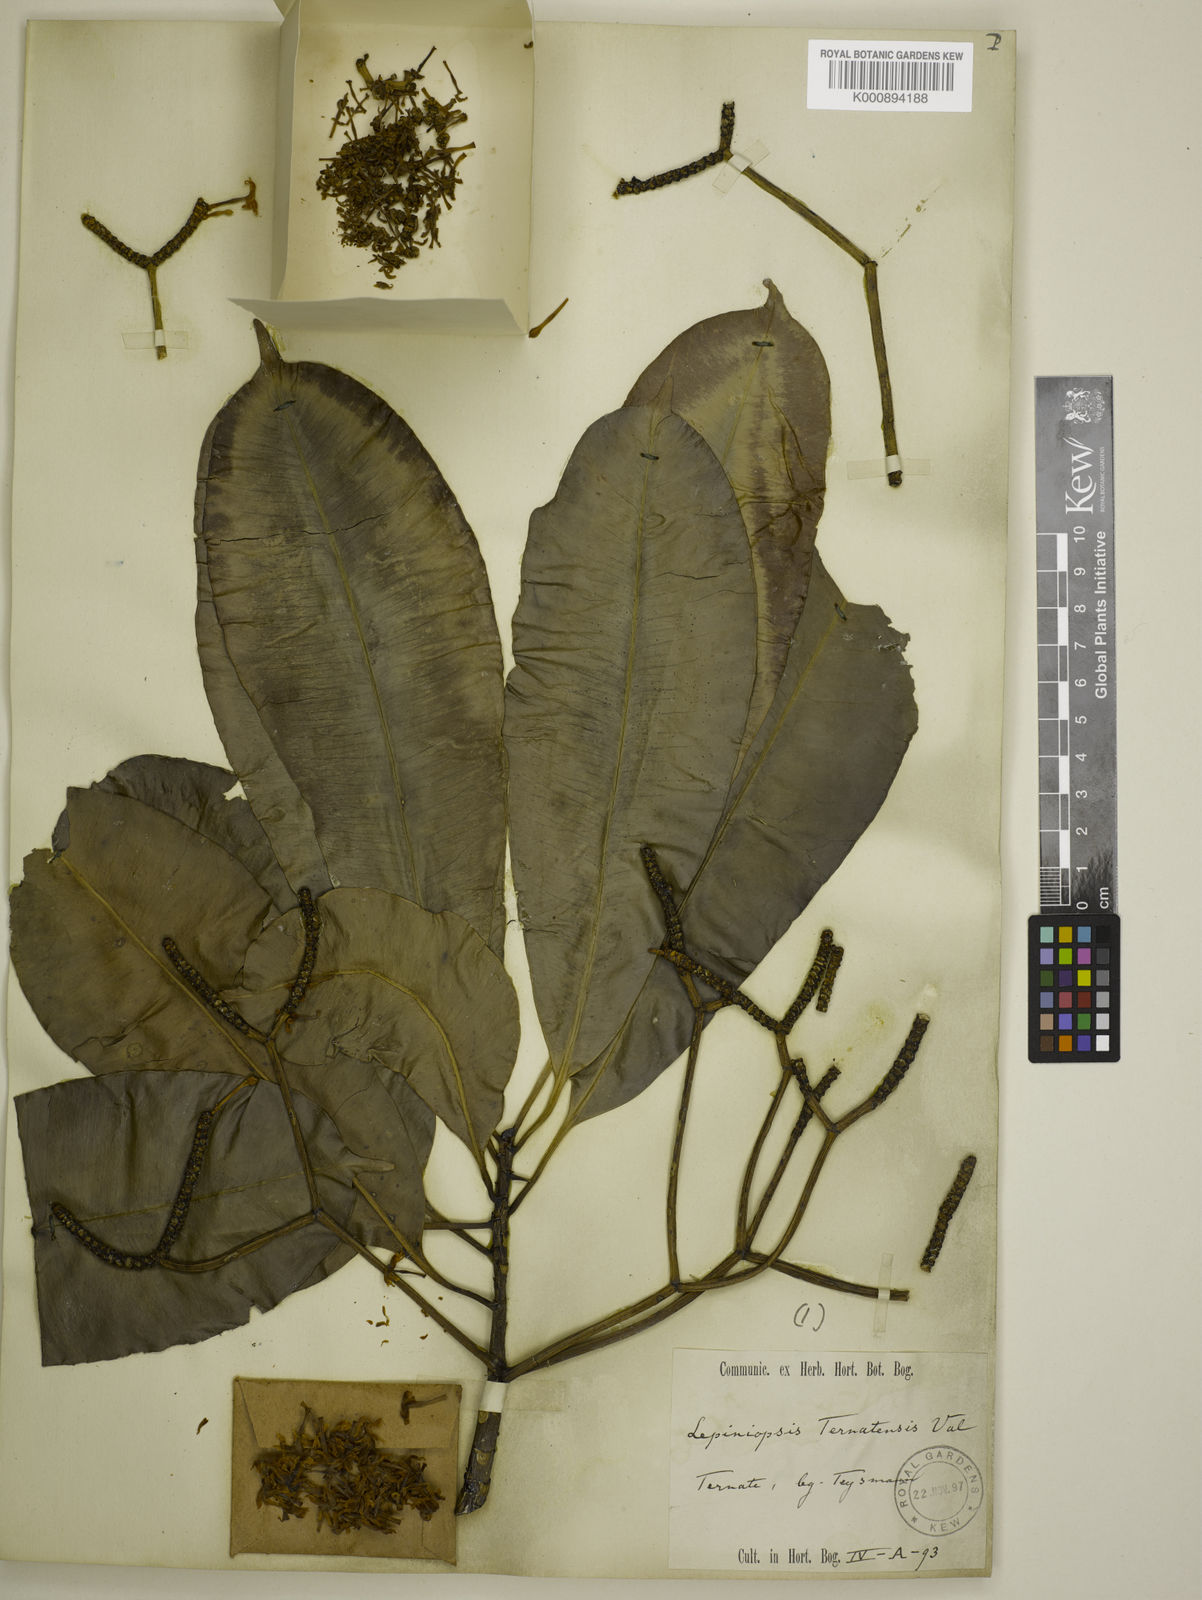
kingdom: Plantae
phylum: Tracheophyta
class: Magnoliopsida
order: Gentianales
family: Apocynaceae
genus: Lepiniopsis
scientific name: Lepiniopsis ternatensis
